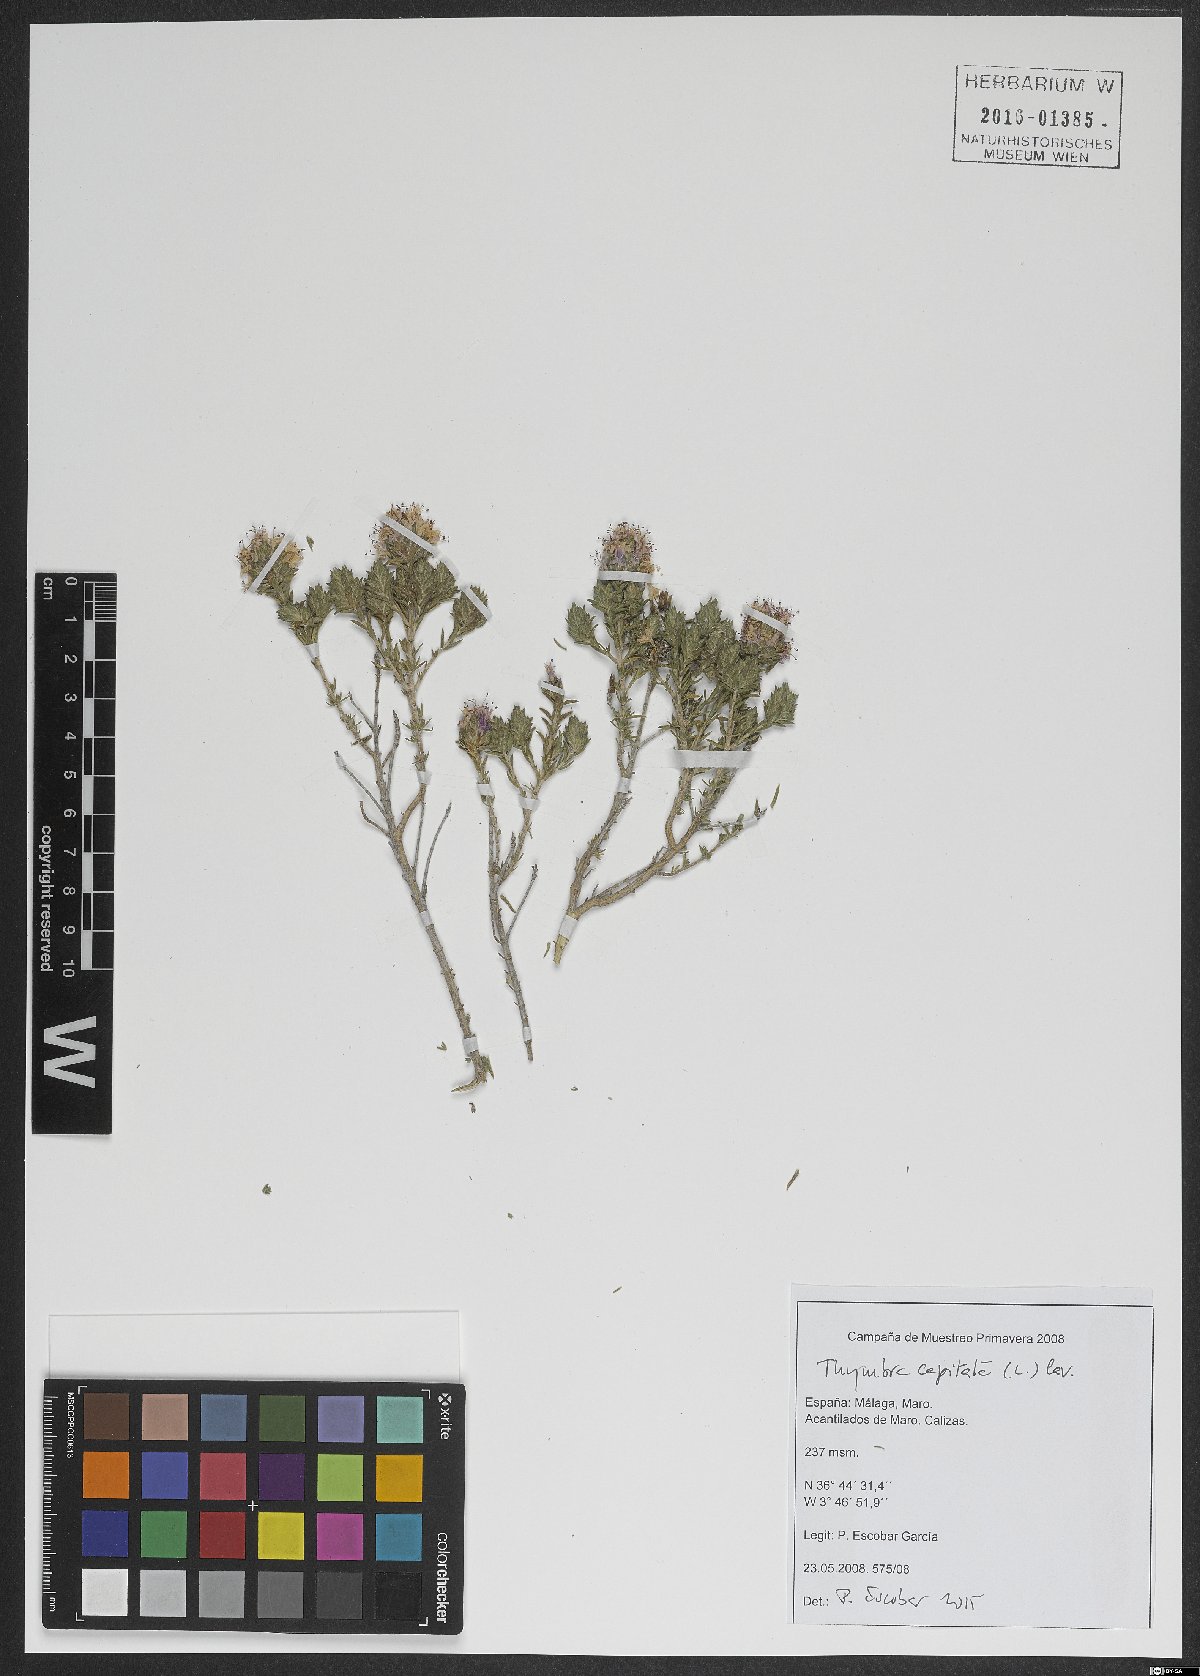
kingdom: Plantae
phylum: Tracheophyta
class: Magnoliopsida
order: Lamiales
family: Lamiaceae
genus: Thymbra
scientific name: Thymbra capitata
